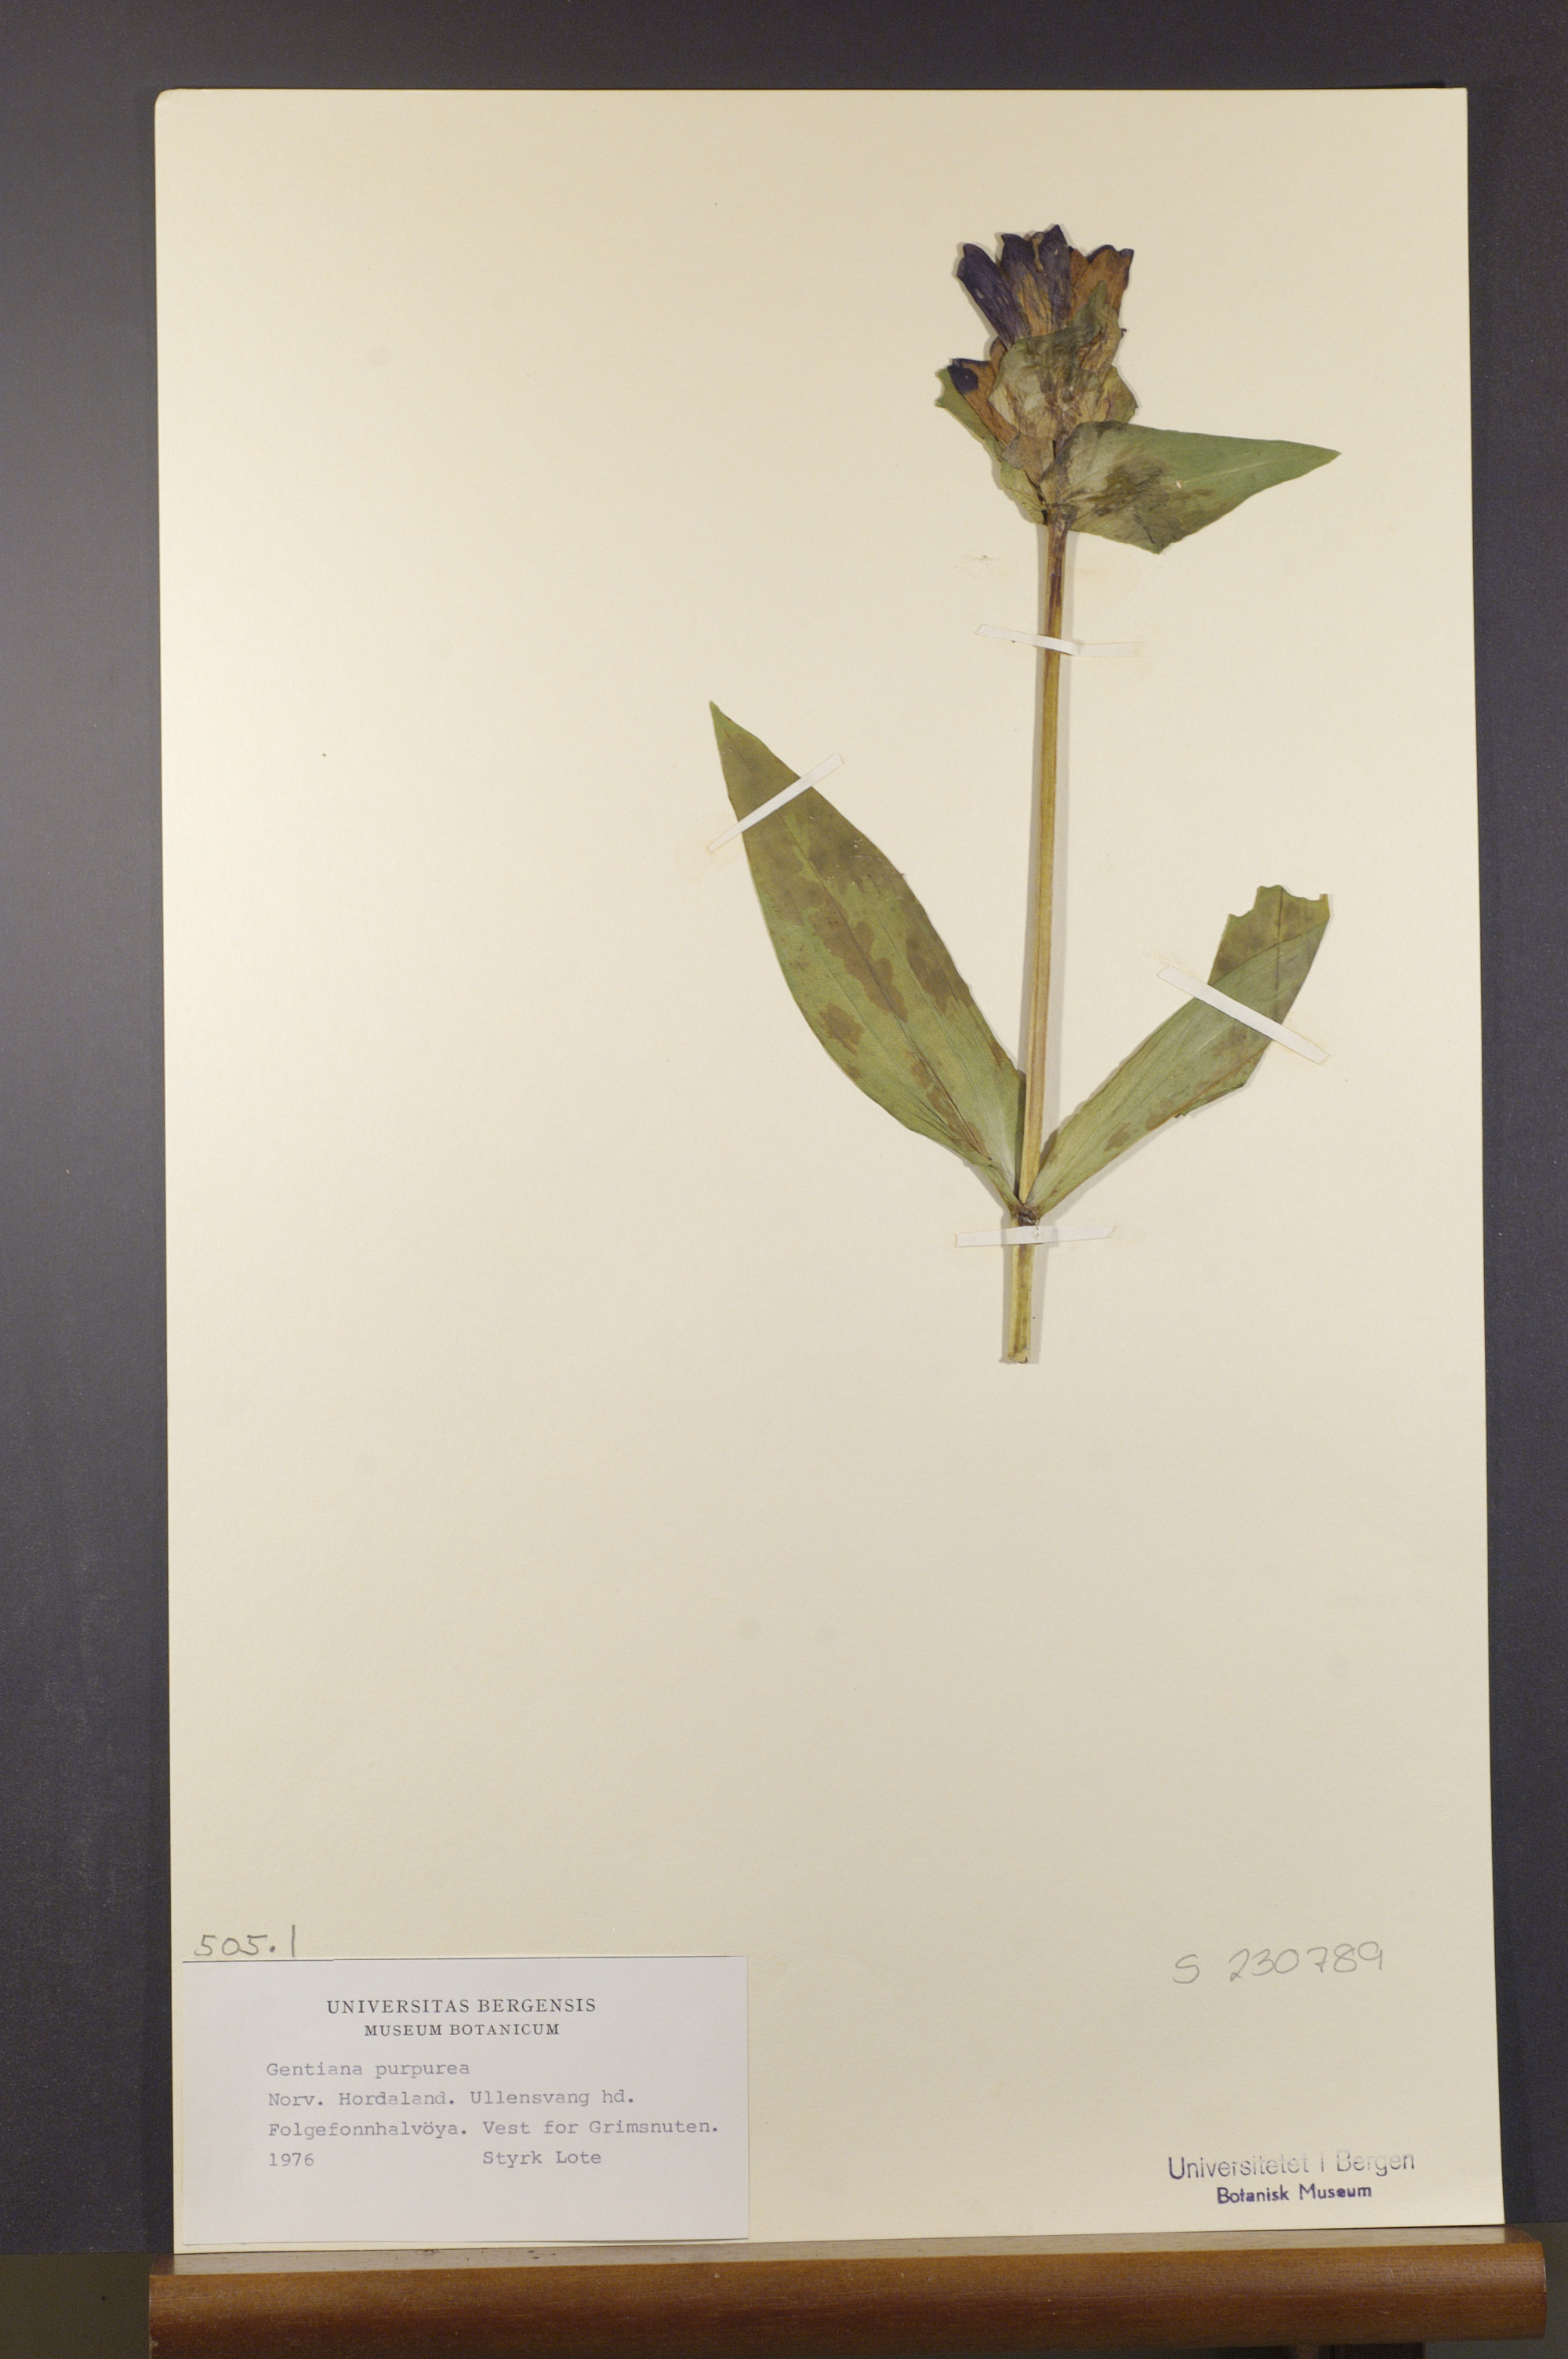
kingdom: Plantae
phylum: Tracheophyta
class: Magnoliopsida
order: Gentianales
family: Gentianaceae
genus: Gentiana
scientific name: Gentiana purpurea
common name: Purple gentian
